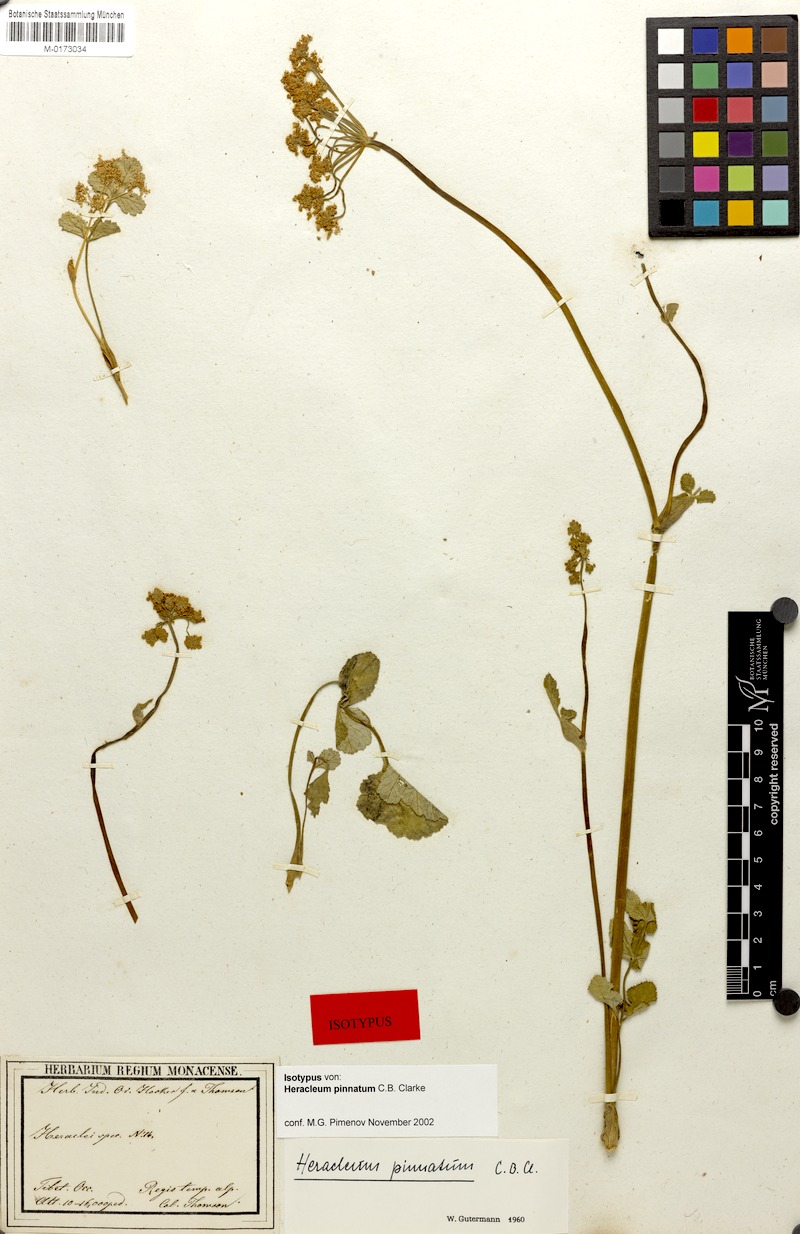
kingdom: Plantae
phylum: Tracheophyta
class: Magnoliopsida
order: Apiales
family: Apiaceae
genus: Tetrataenium
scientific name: Tetrataenium pinnatum
